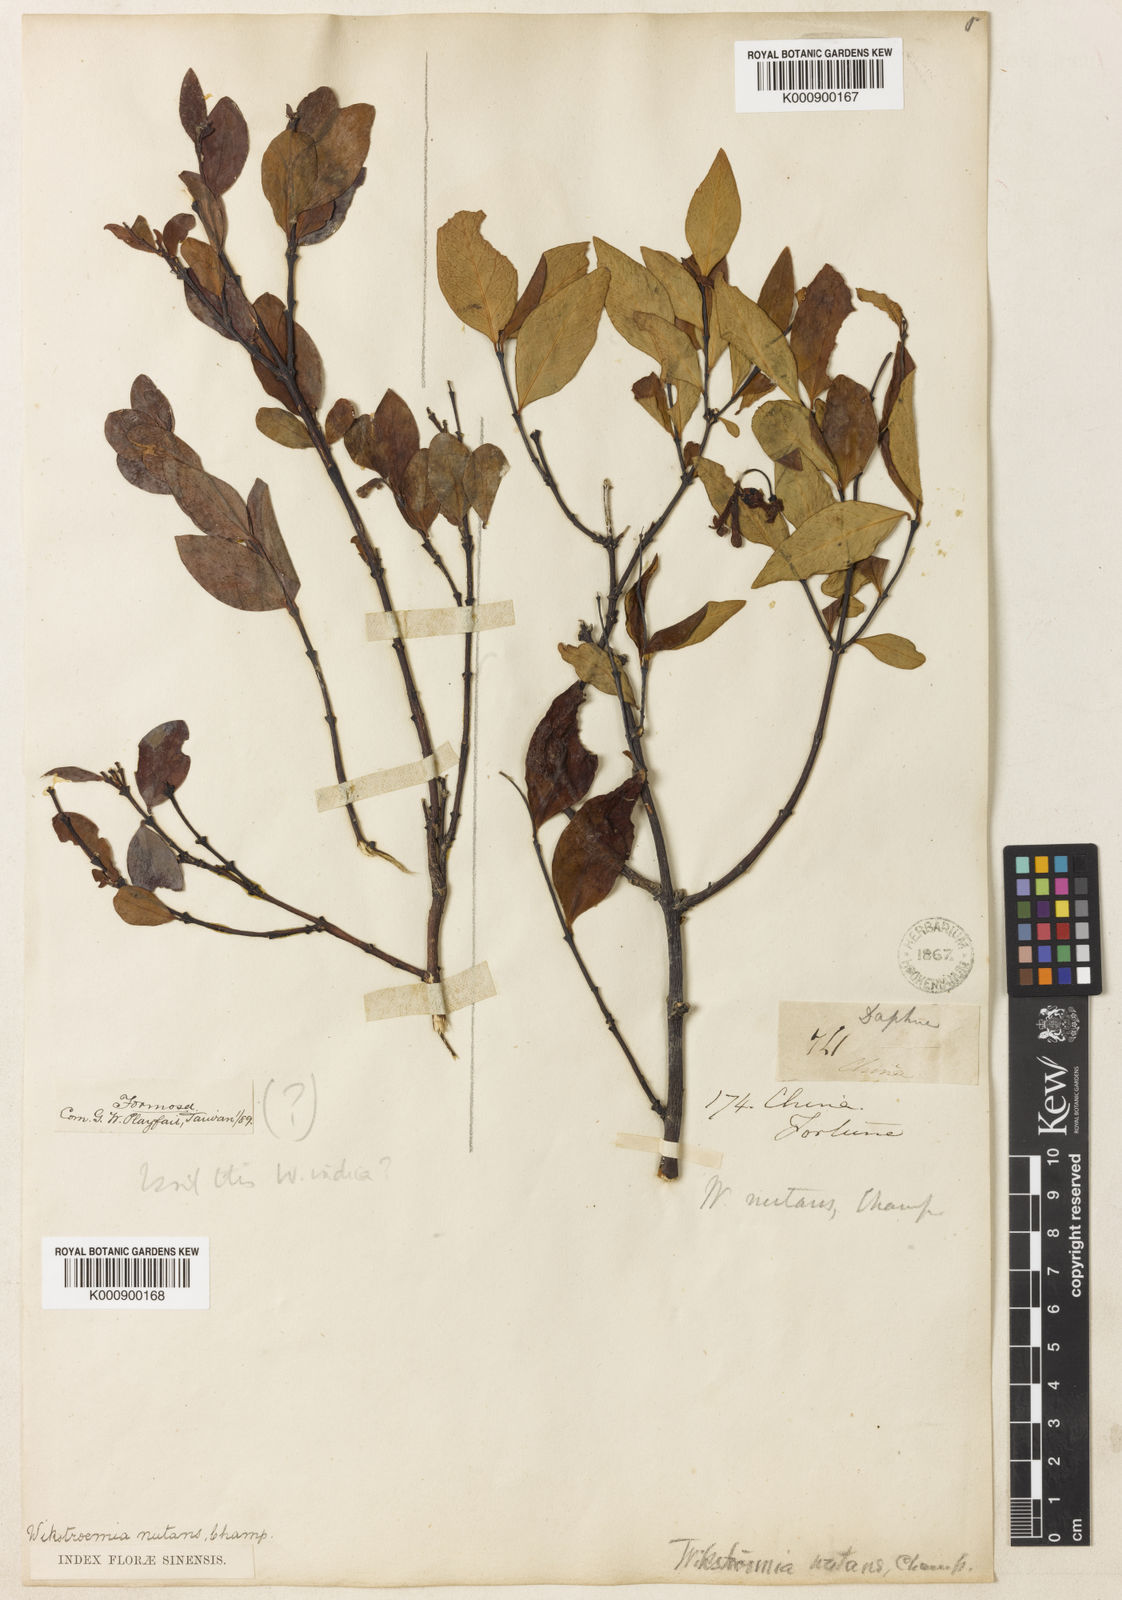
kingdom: Plantae
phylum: Tracheophyta
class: Magnoliopsida
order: Malvales
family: Thymelaeaceae
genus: Wikstroemia
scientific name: Wikstroemia nutans
